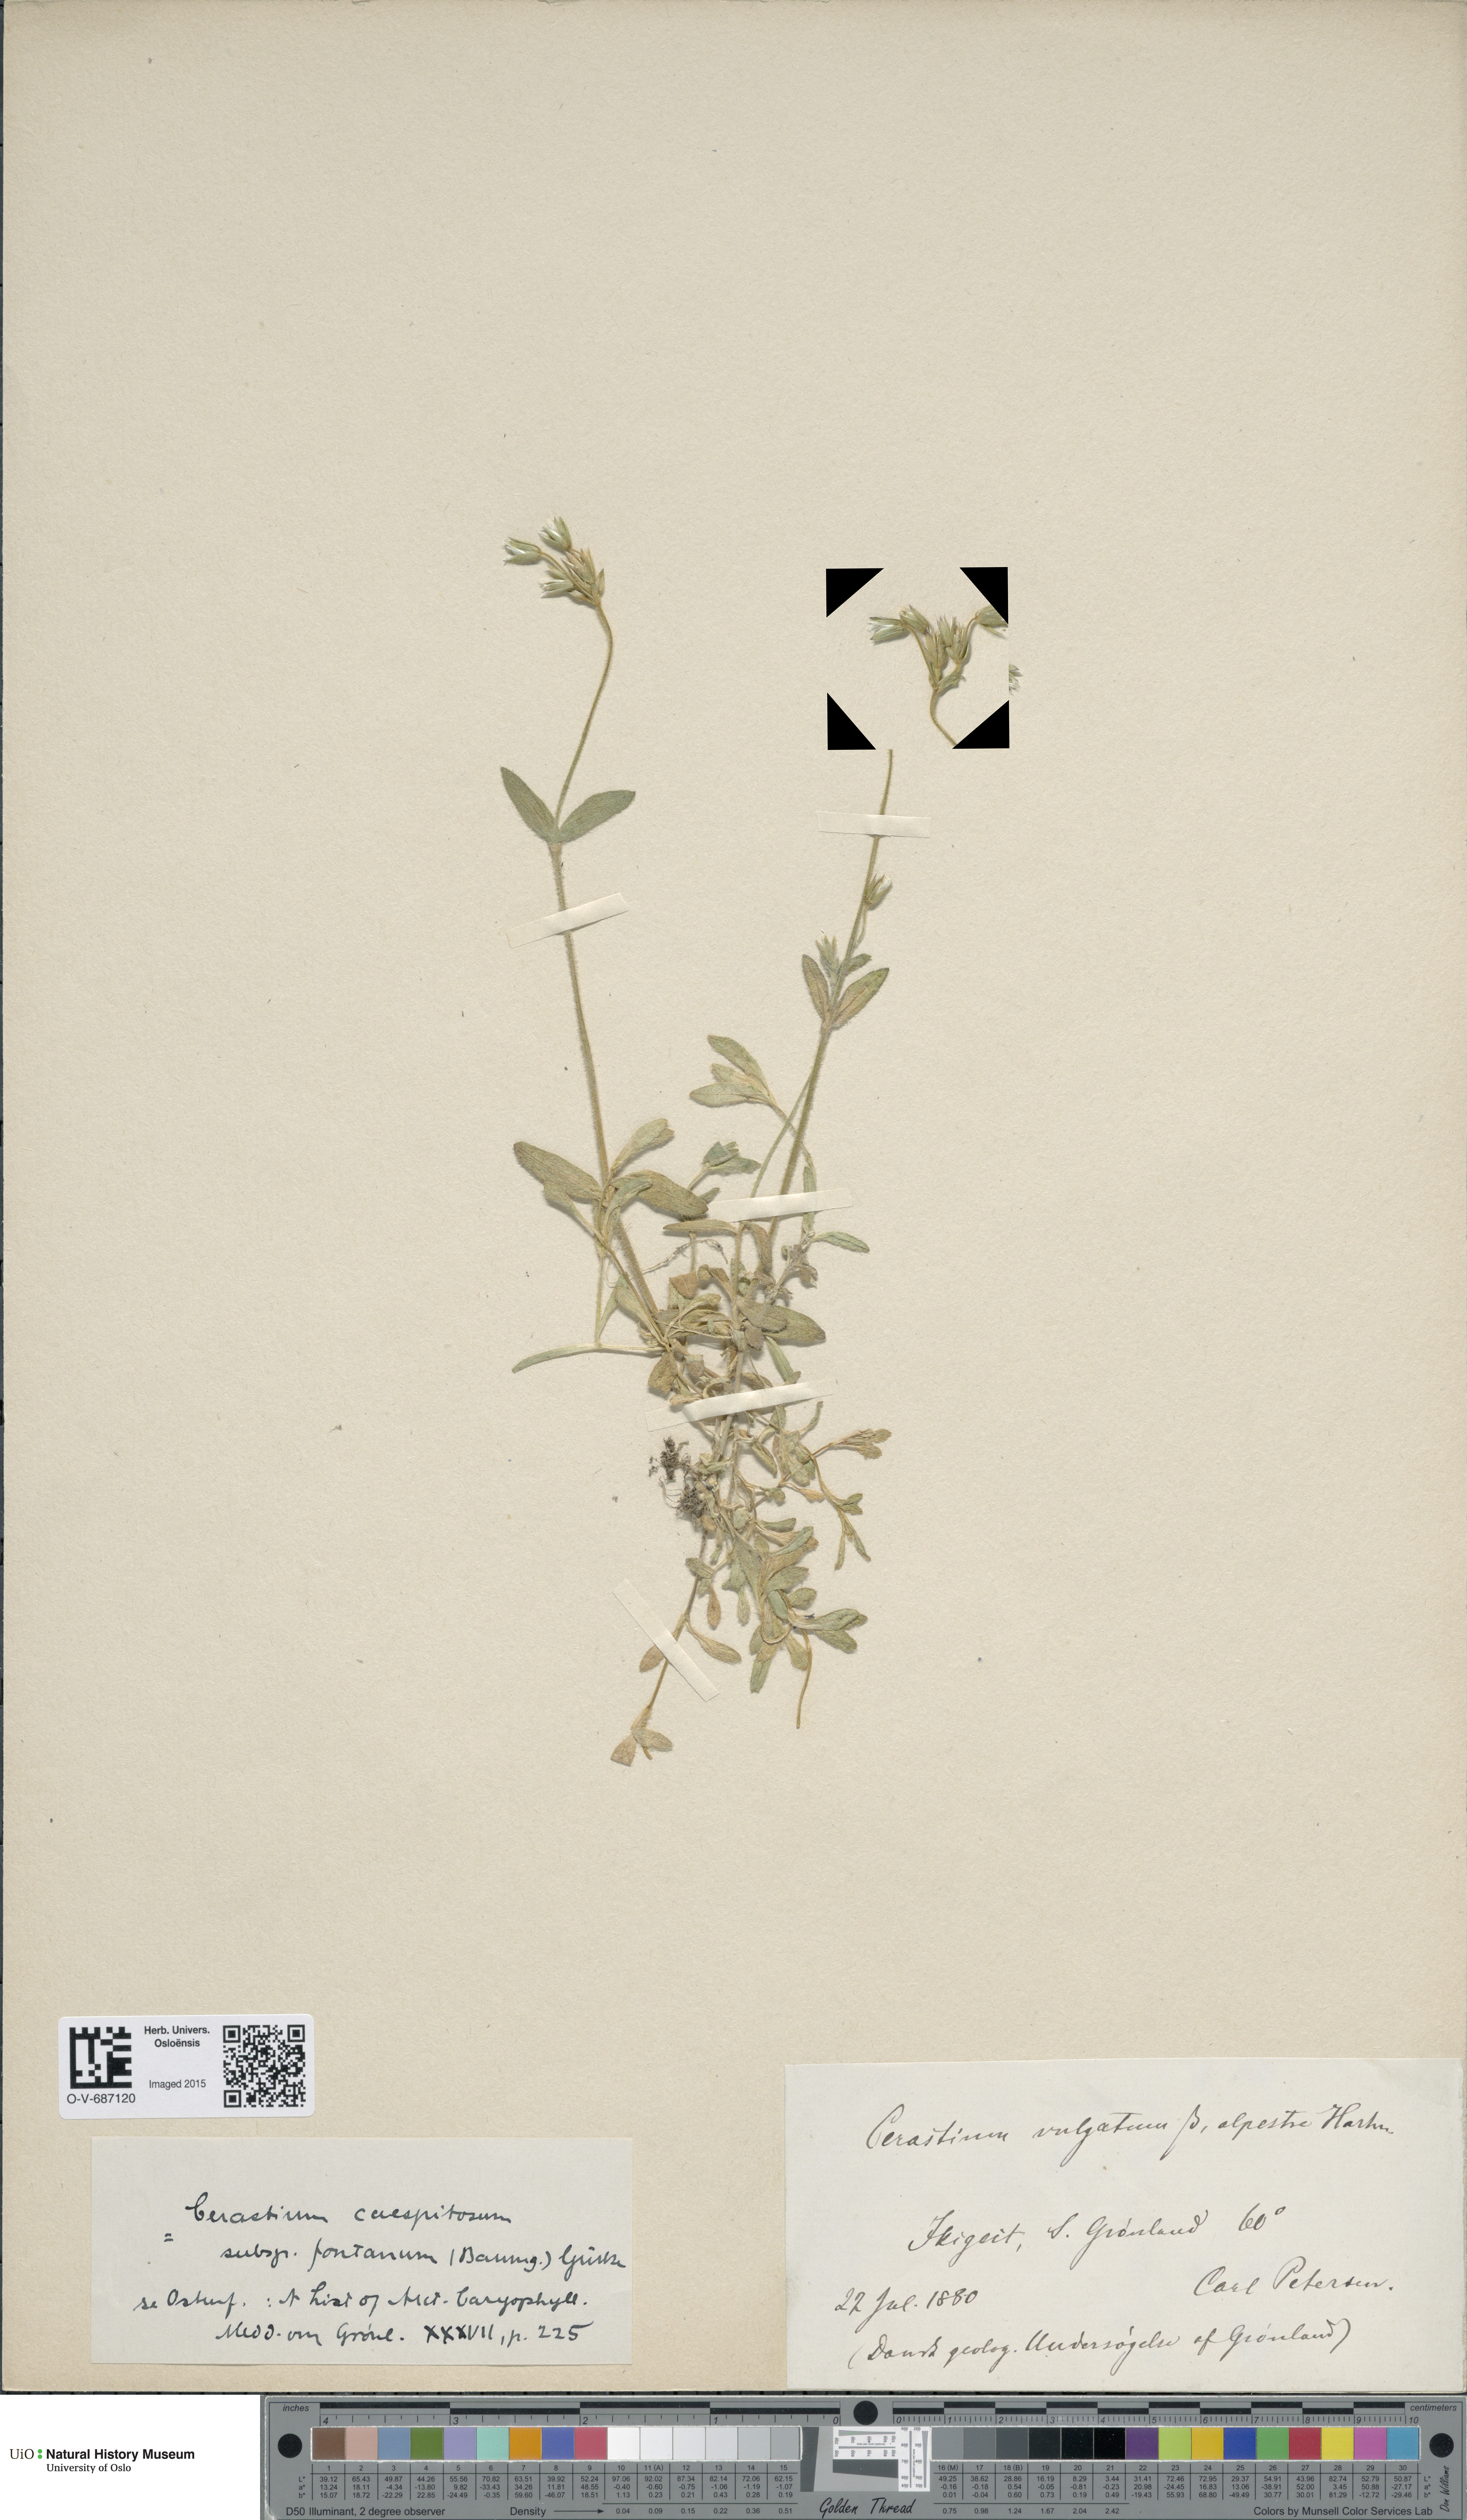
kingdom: Plantae
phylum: Tracheophyta
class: Magnoliopsida
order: Caryophyllales
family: Caryophyllaceae
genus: Cerastium
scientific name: Cerastium fontanum
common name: Common mouse-ear
